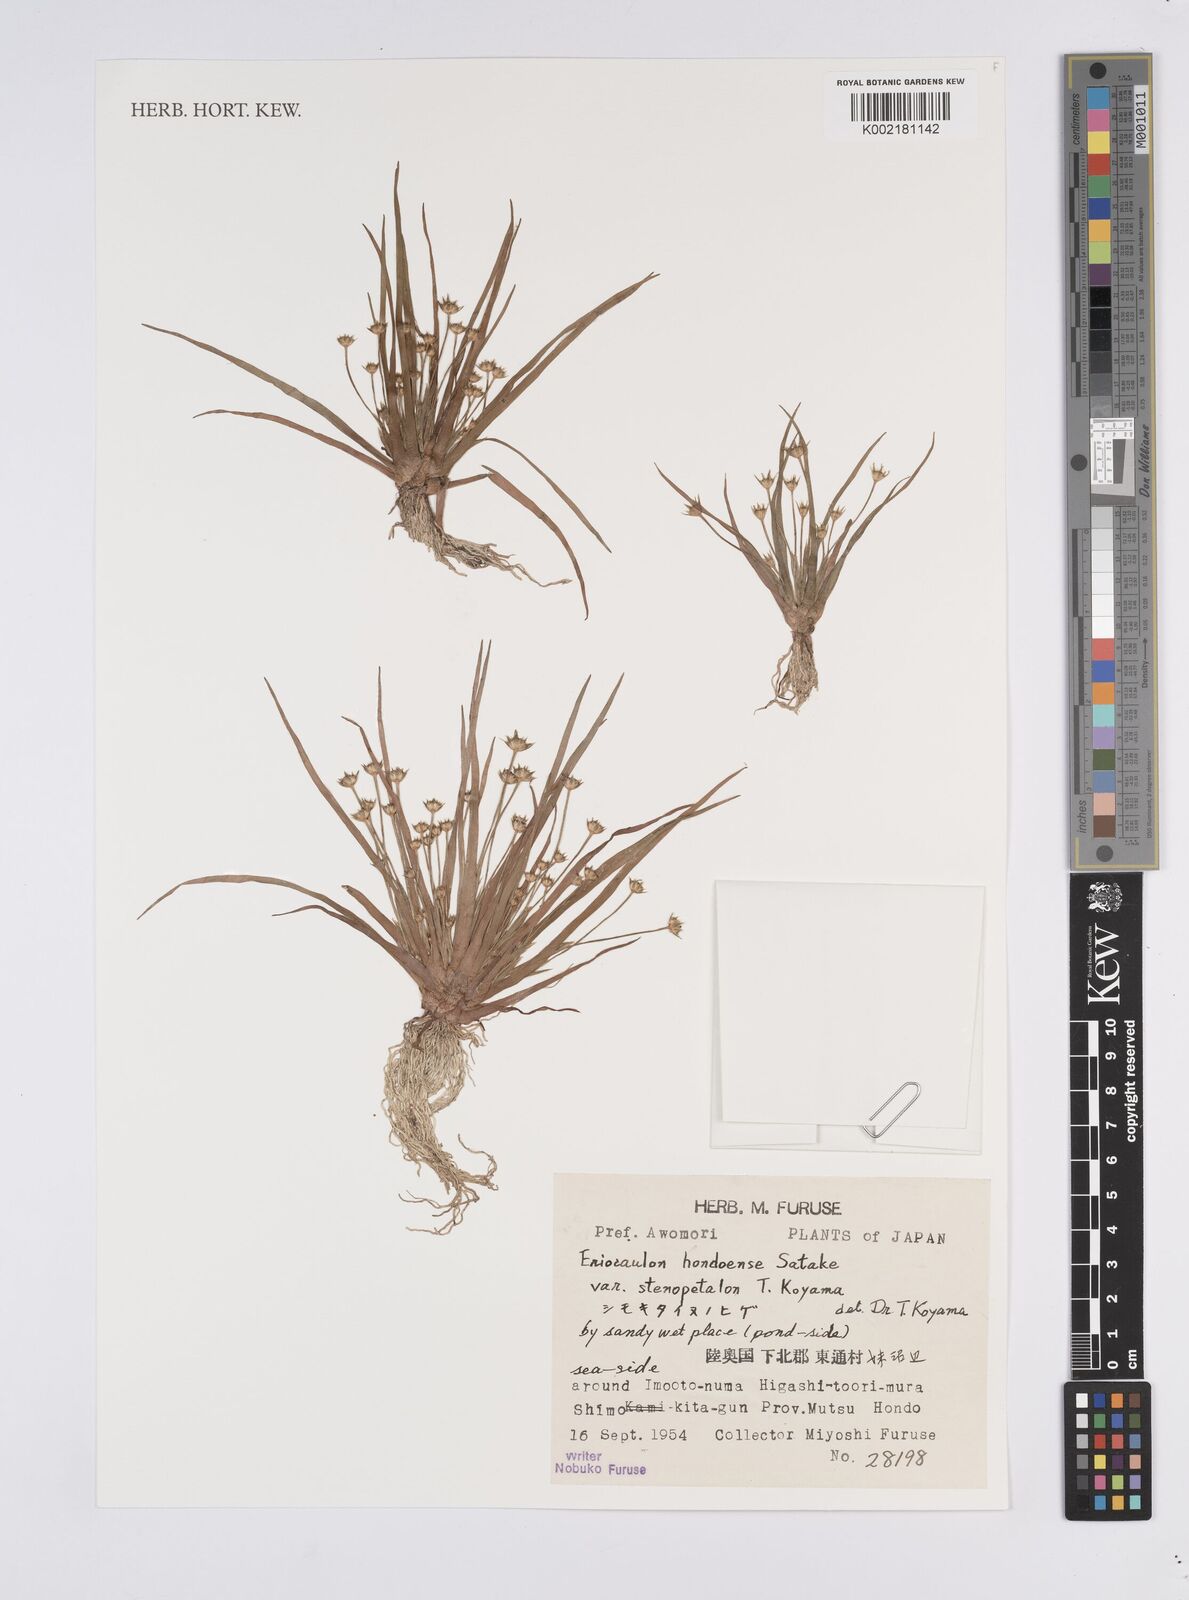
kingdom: Plantae
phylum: Tracheophyta
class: Liliopsida
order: Poales
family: Eriocaulaceae
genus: Eriocaulon
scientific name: Eriocaulon taquetii
